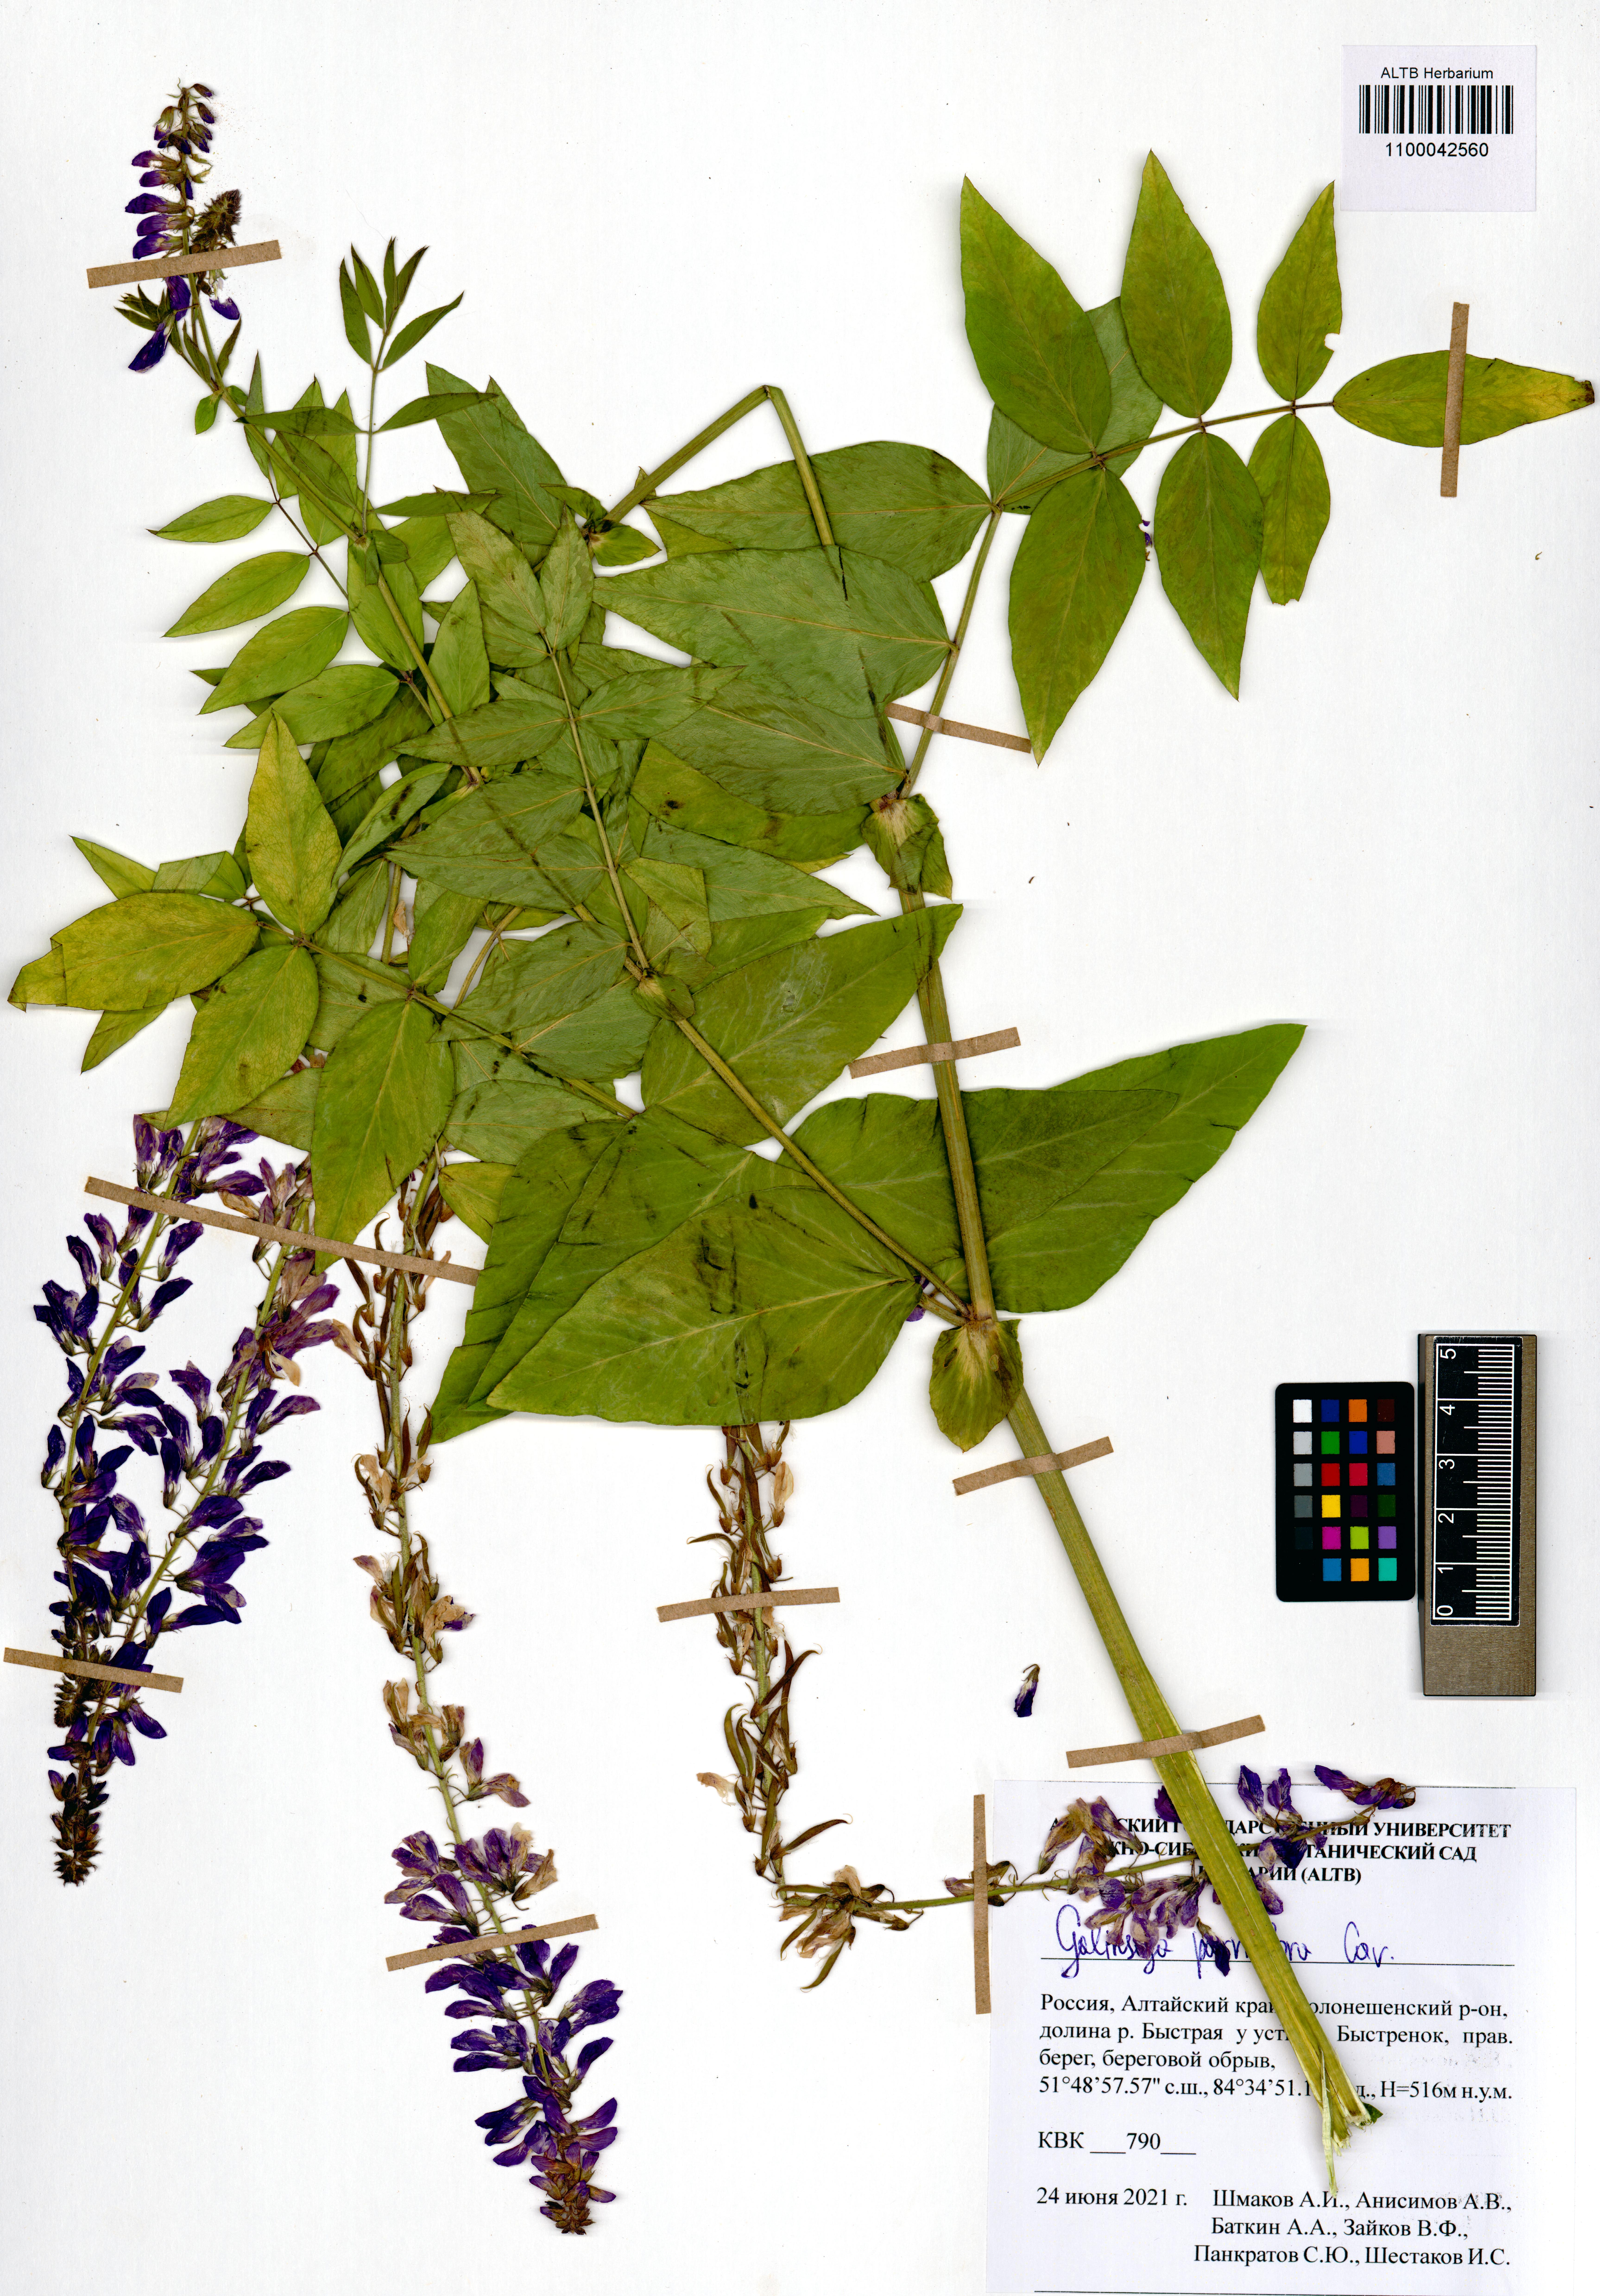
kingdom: Plantae
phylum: Tracheophyta
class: Magnoliopsida
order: Asterales
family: Asteraceae
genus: Galinsoga
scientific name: Galinsoga parviflora
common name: Gallant soldier
